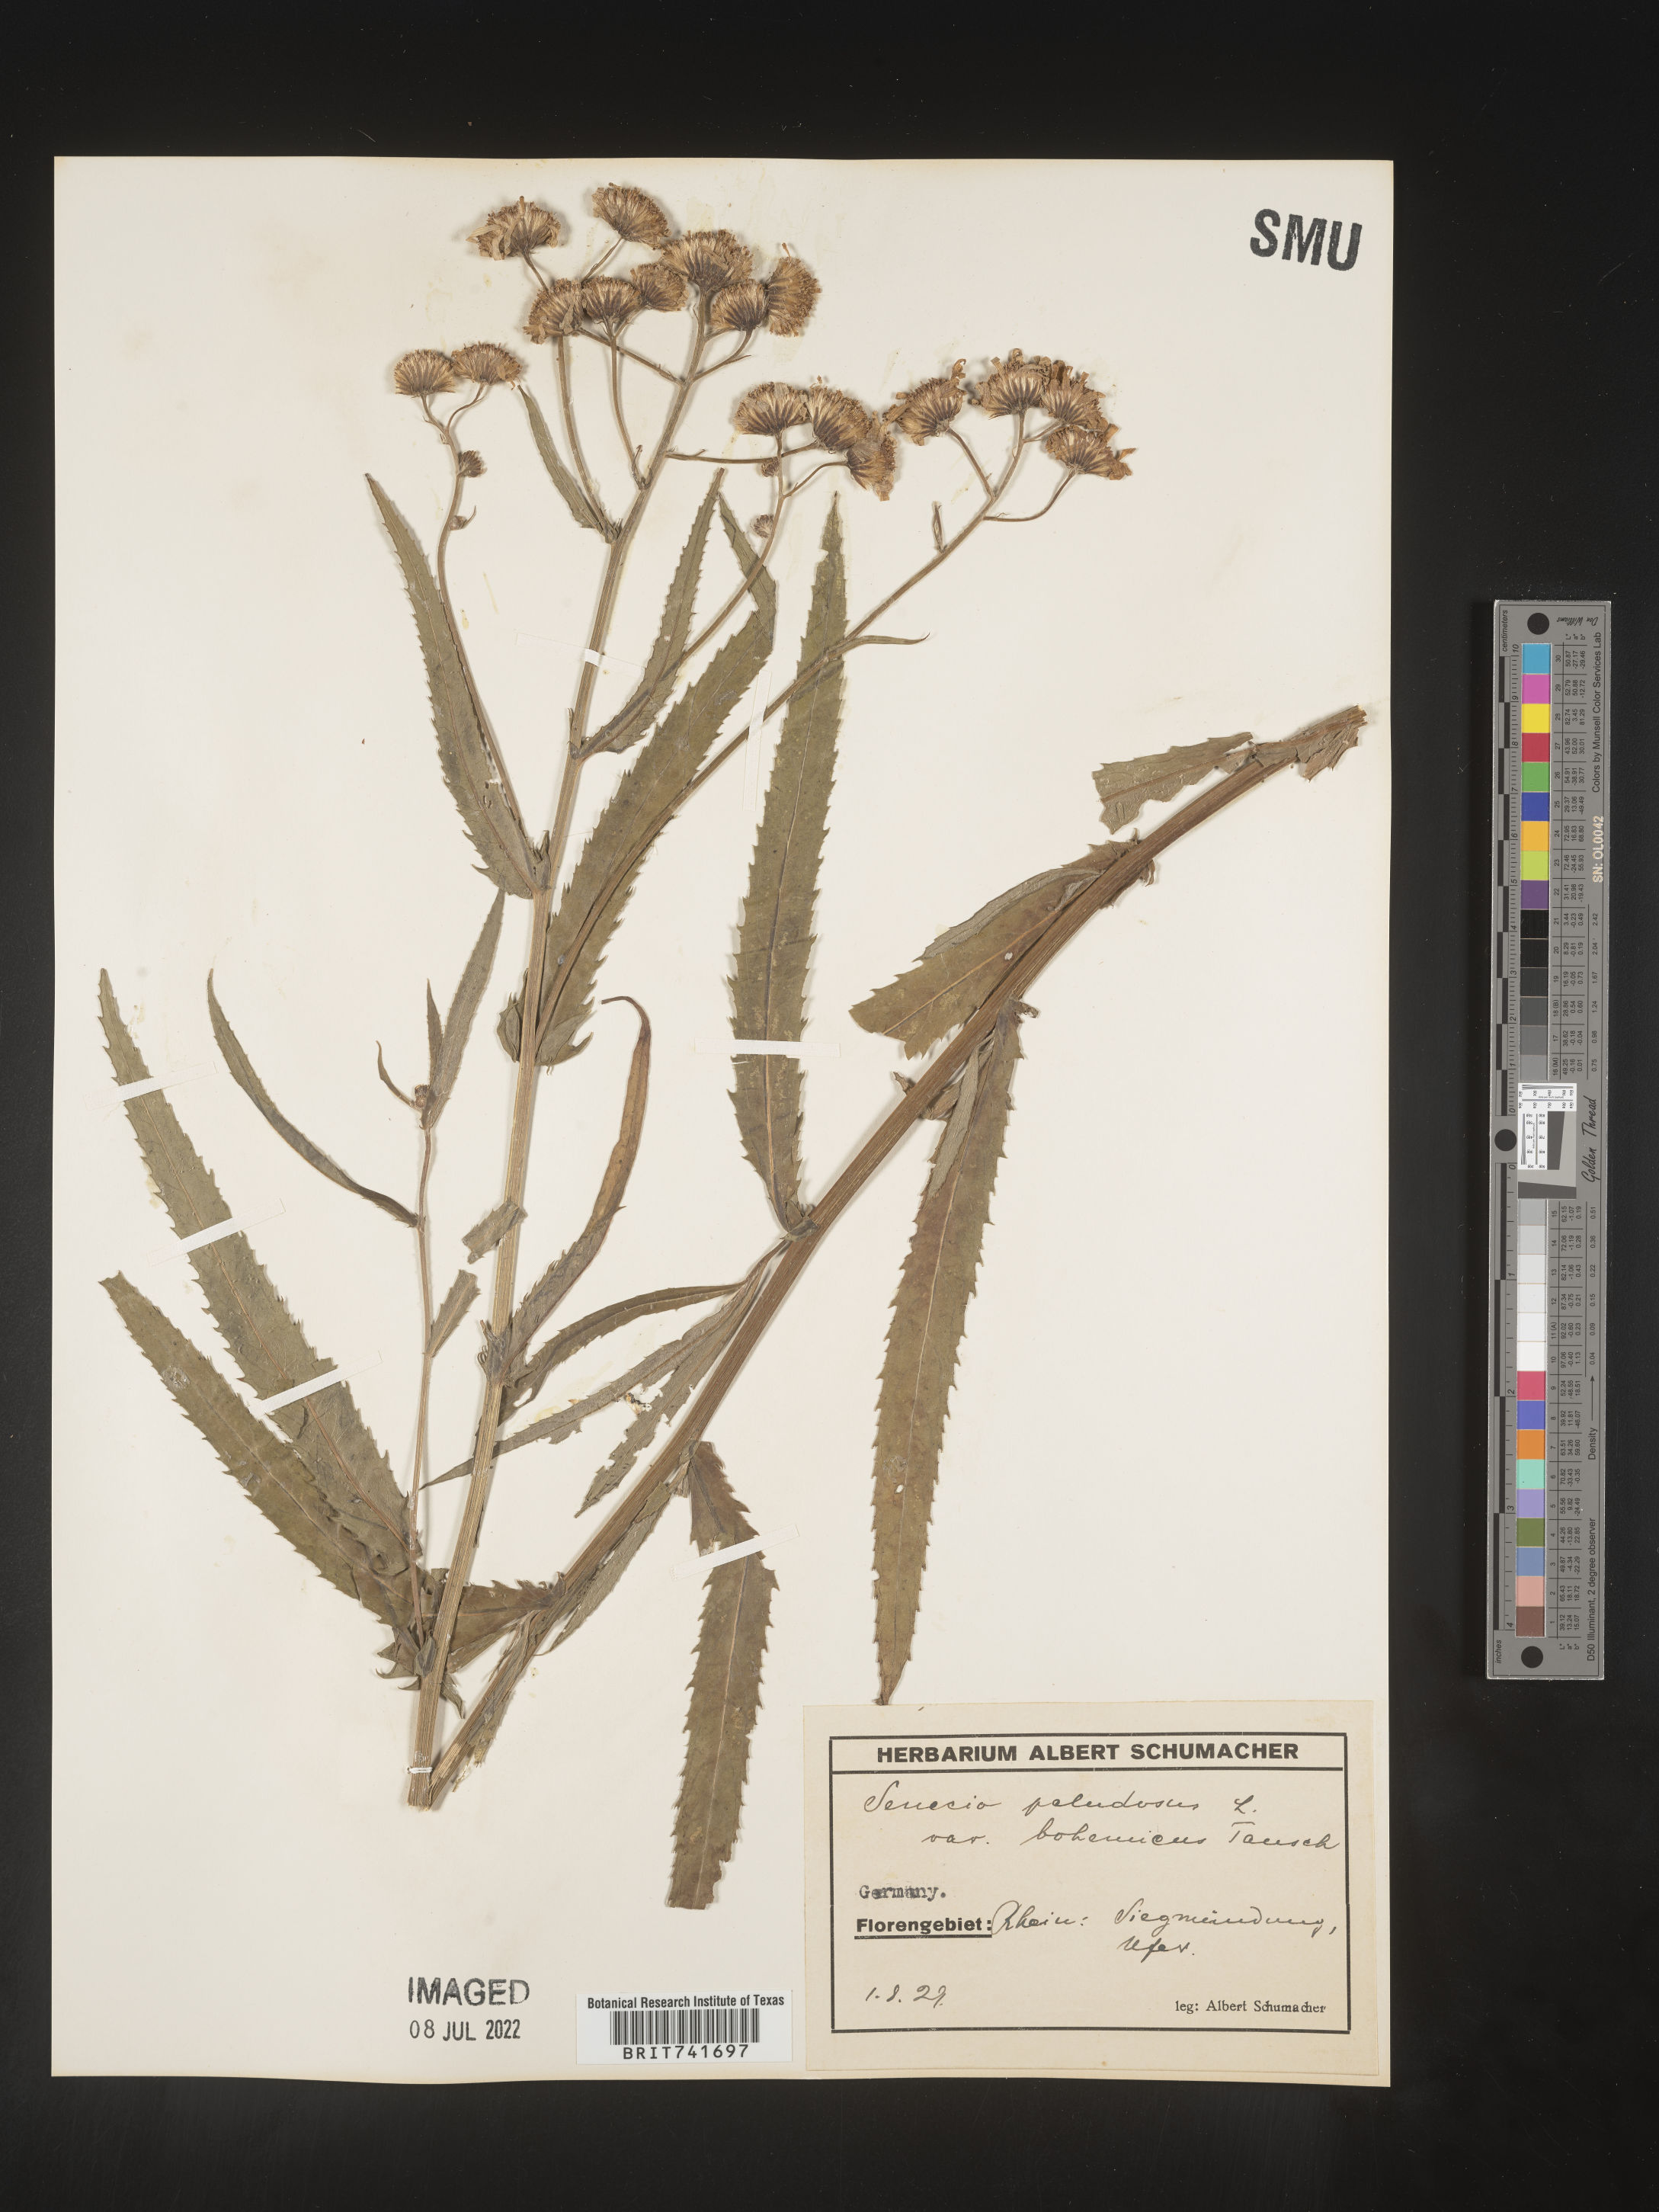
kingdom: Plantae
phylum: Tracheophyta
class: Magnoliopsida
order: Asterales
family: Asteraceae
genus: Senecio
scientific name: Senecio
